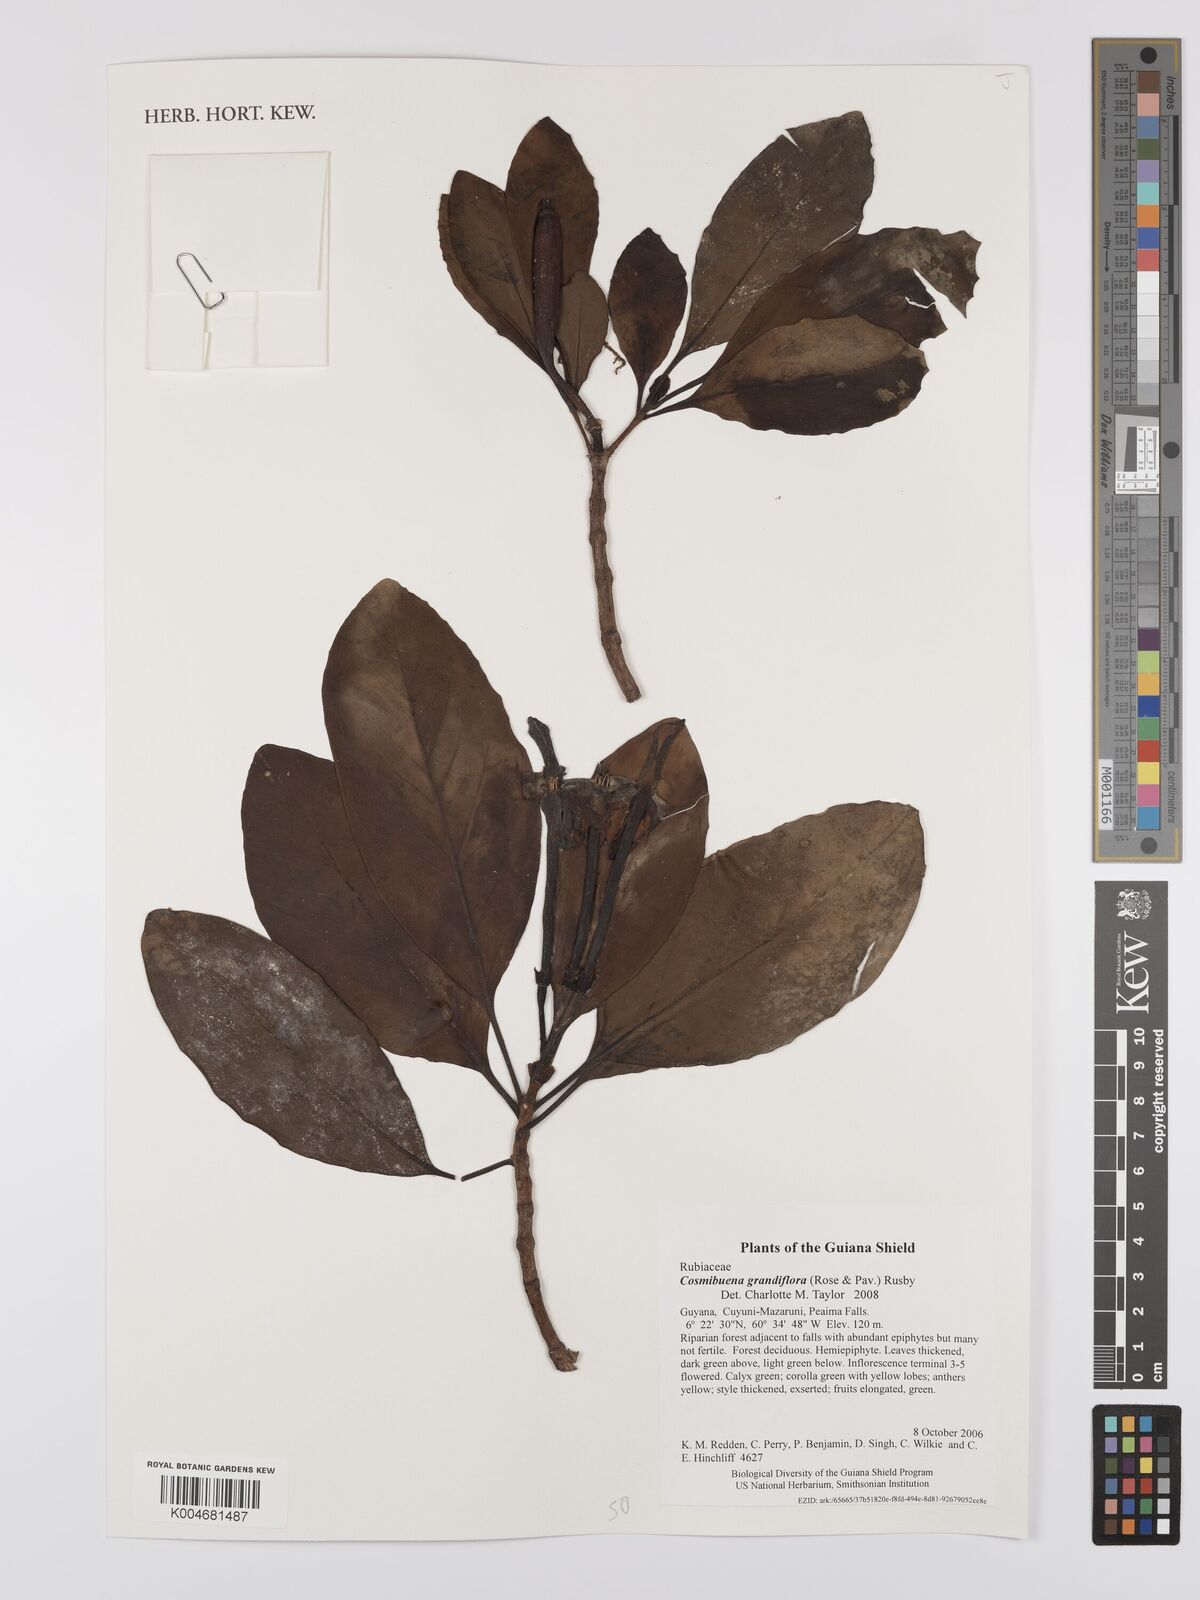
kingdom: Plantae
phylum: Tracheophyta
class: Magnoliopsida
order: Gentianales
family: Rubiaceae
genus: Cosmibuena
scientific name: Cosmibuena grandiflora
